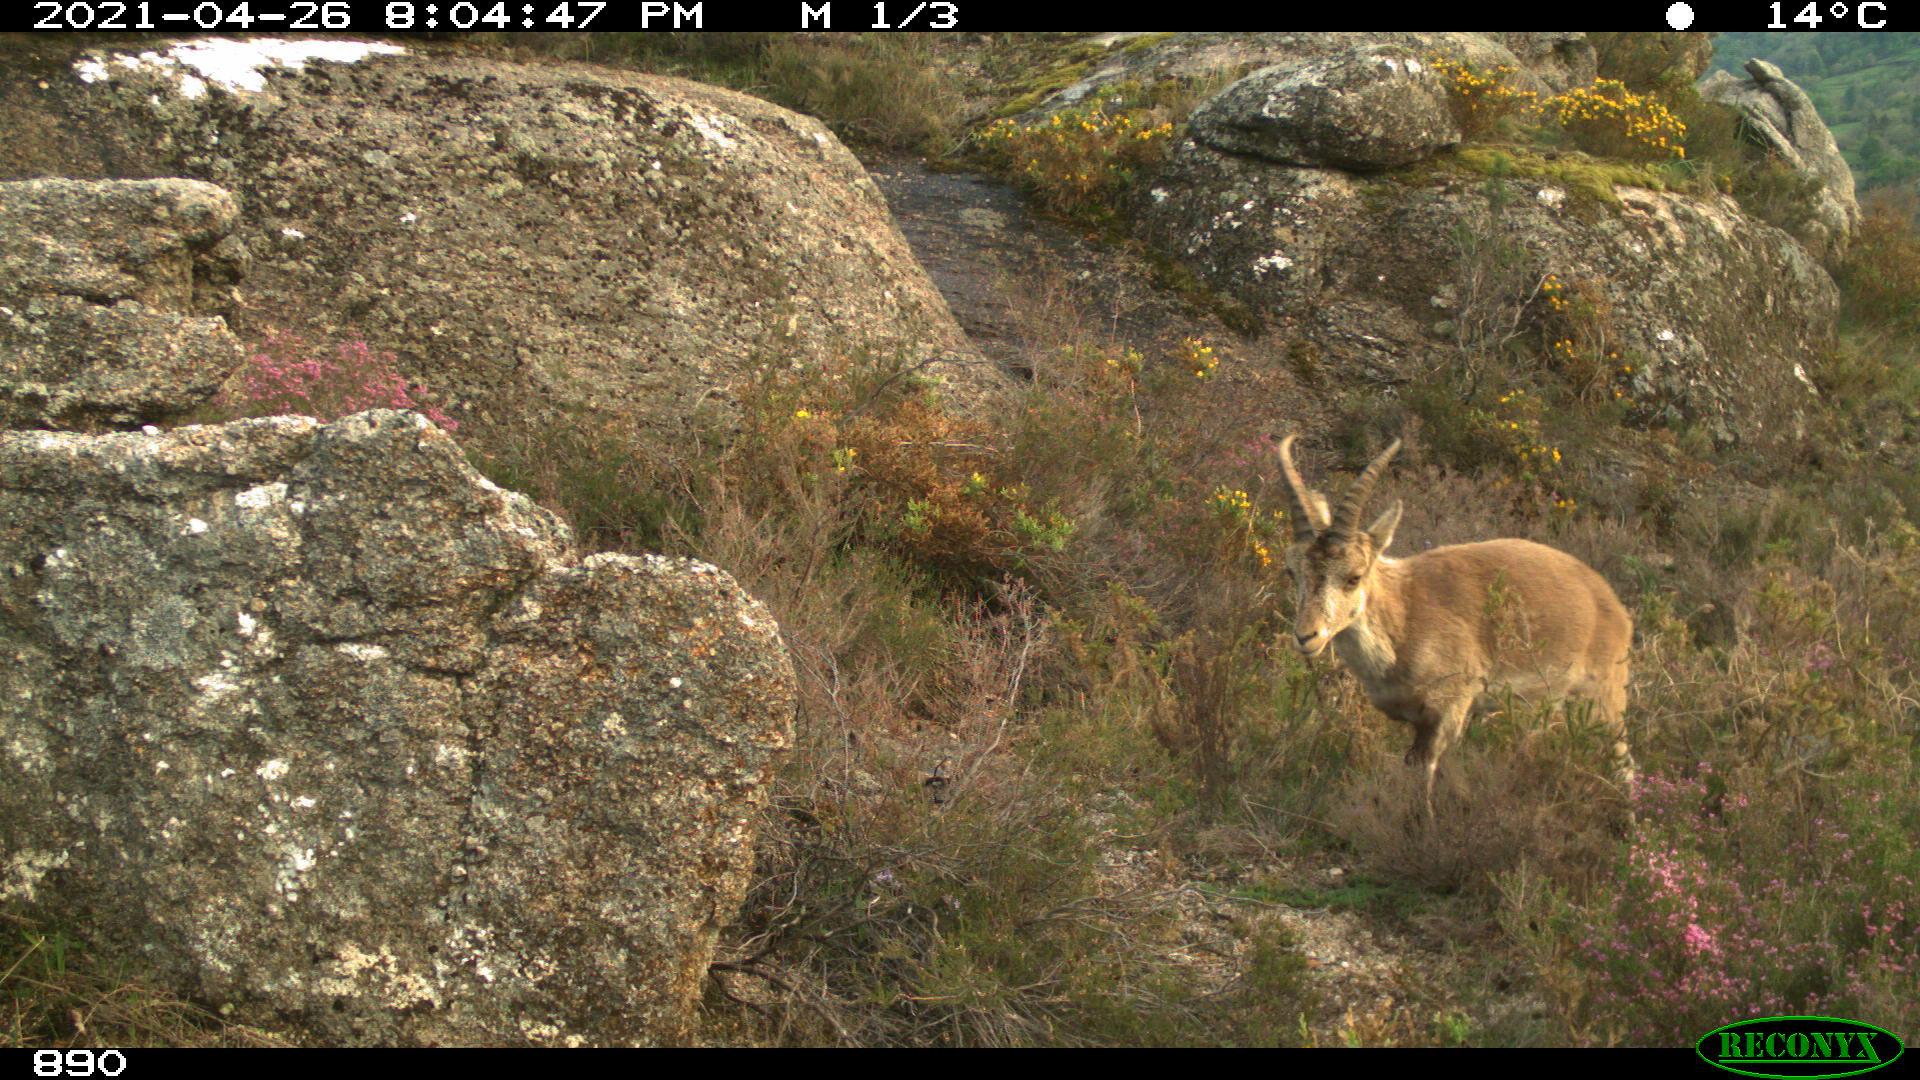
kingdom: Animalia
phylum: Chordata
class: Mammalia
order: Artiodactyla
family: Bovidae
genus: Capra
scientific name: Capra pyrenaica
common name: Spanish ibex
